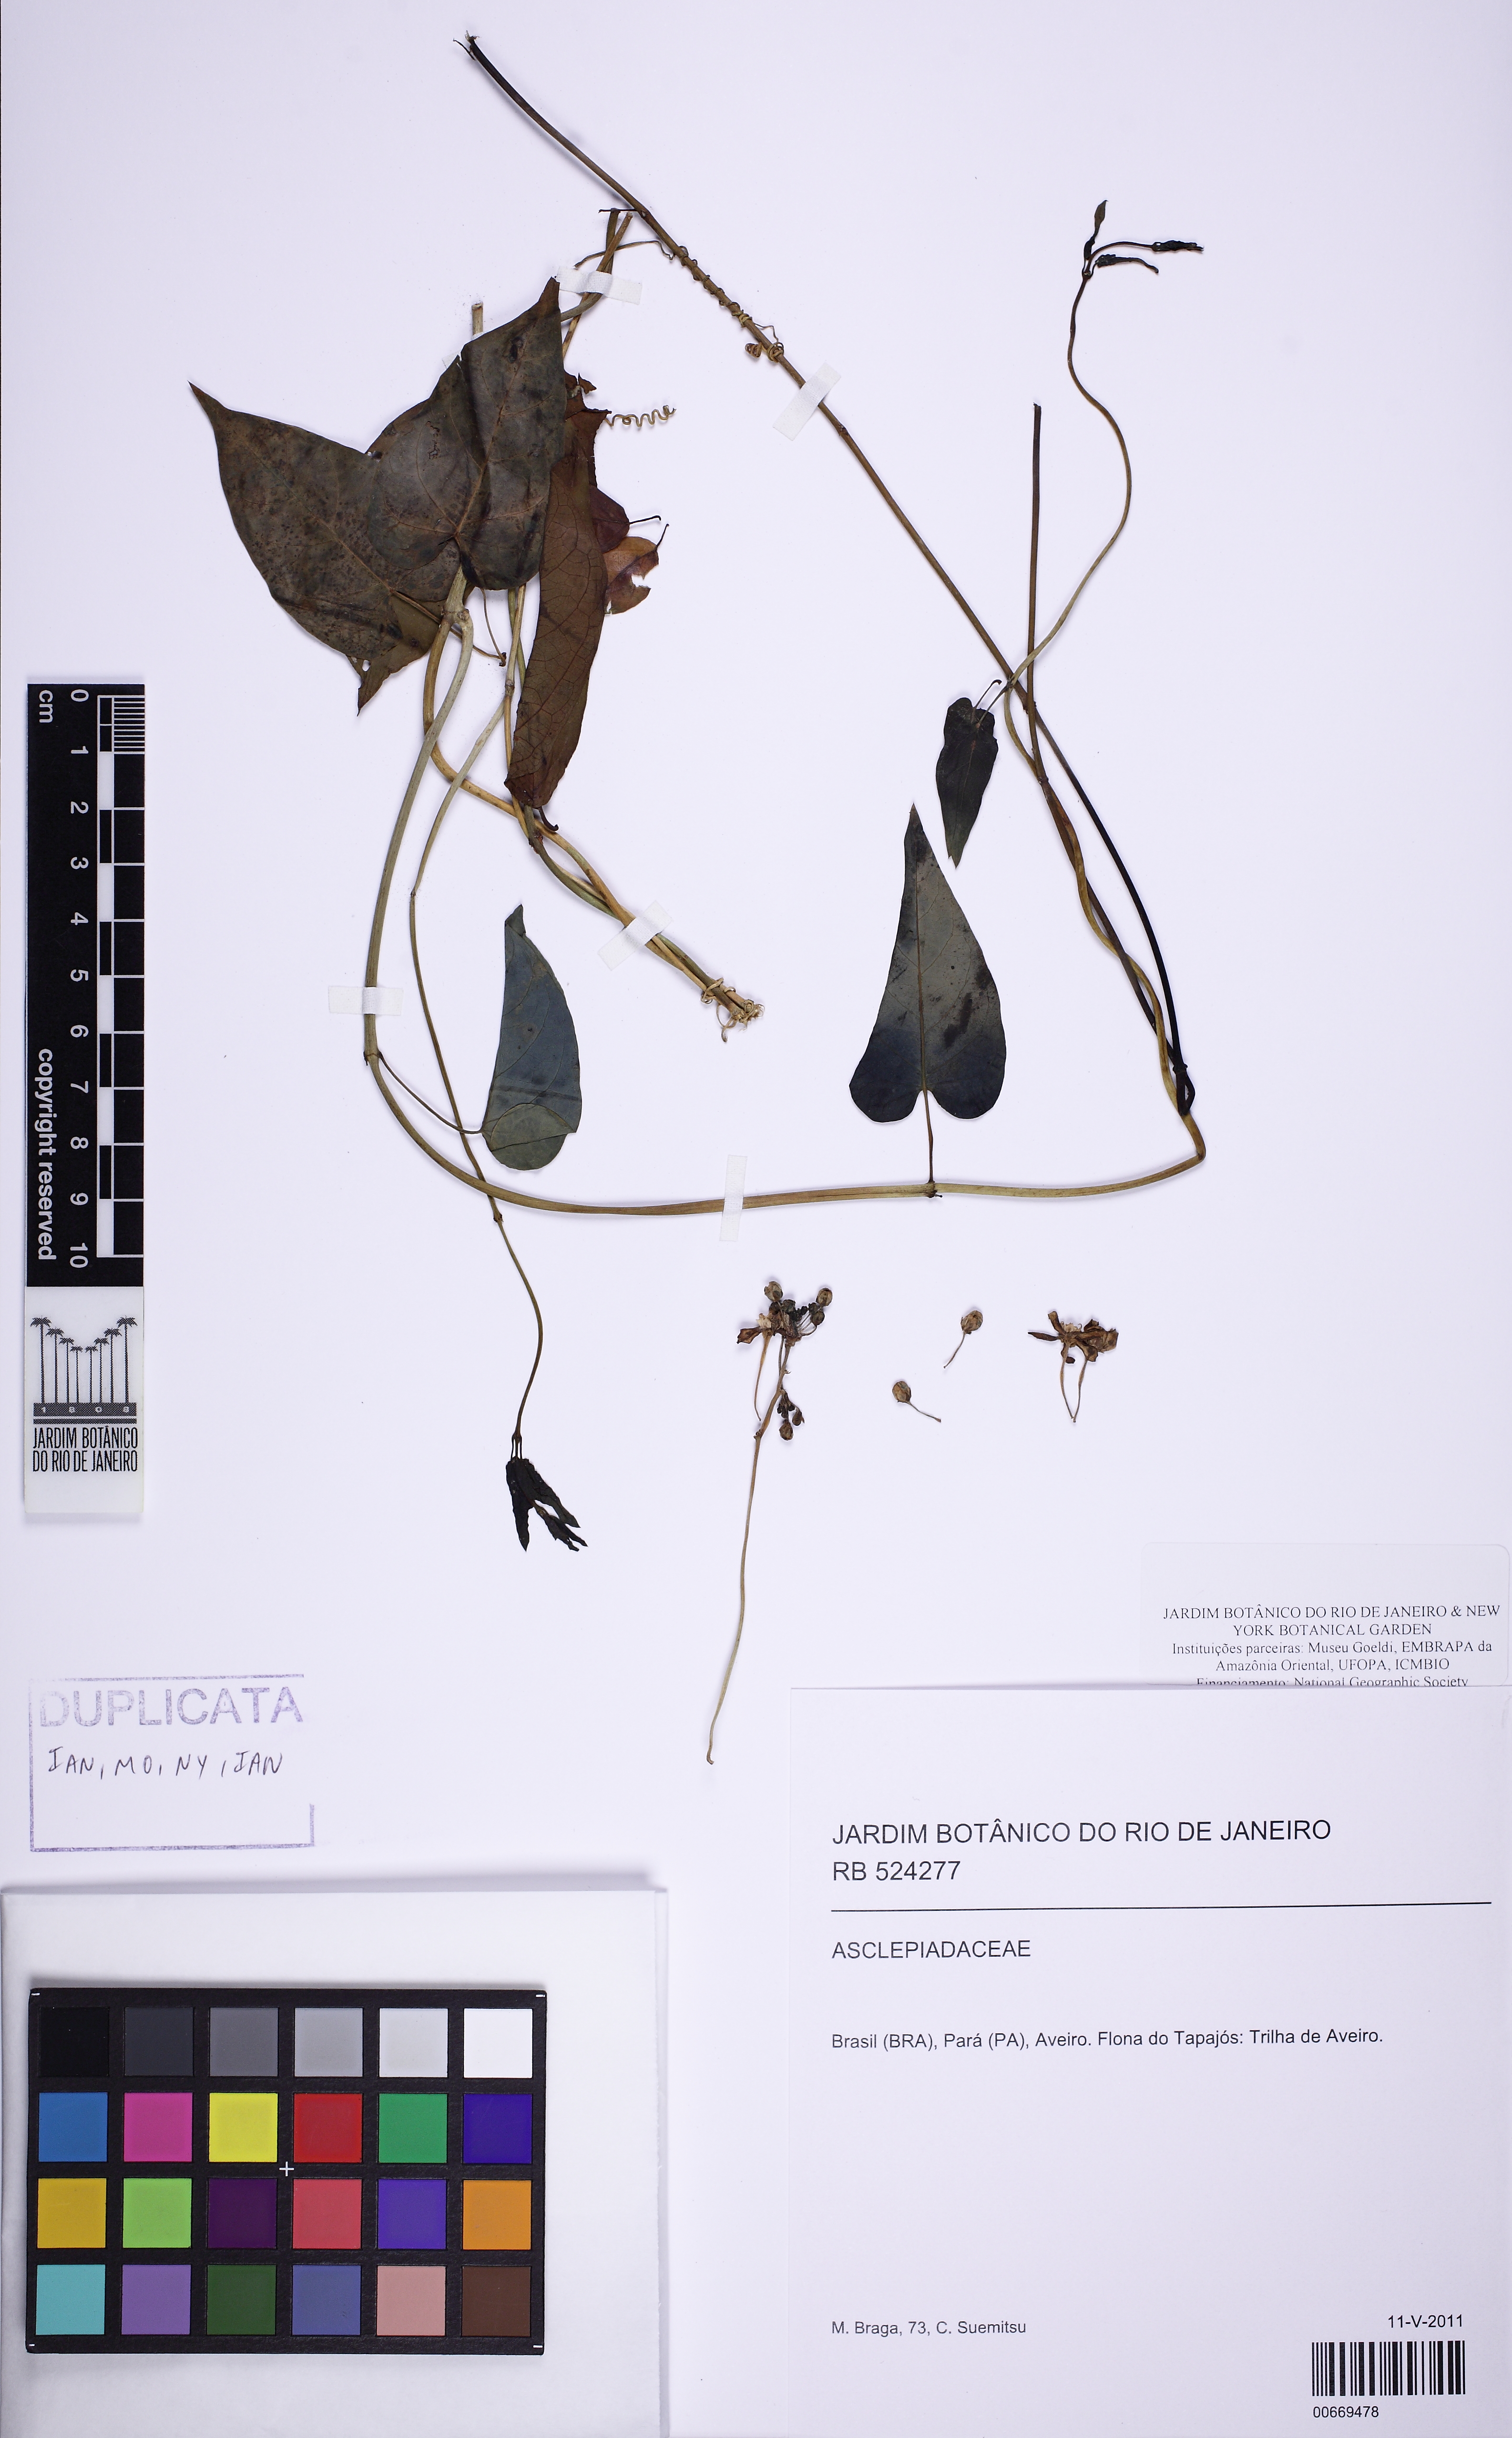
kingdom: Plantae
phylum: Tracheophyta
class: Magnoliopsida
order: Gentianales
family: Apocynaceae
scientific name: Apocynaceae
